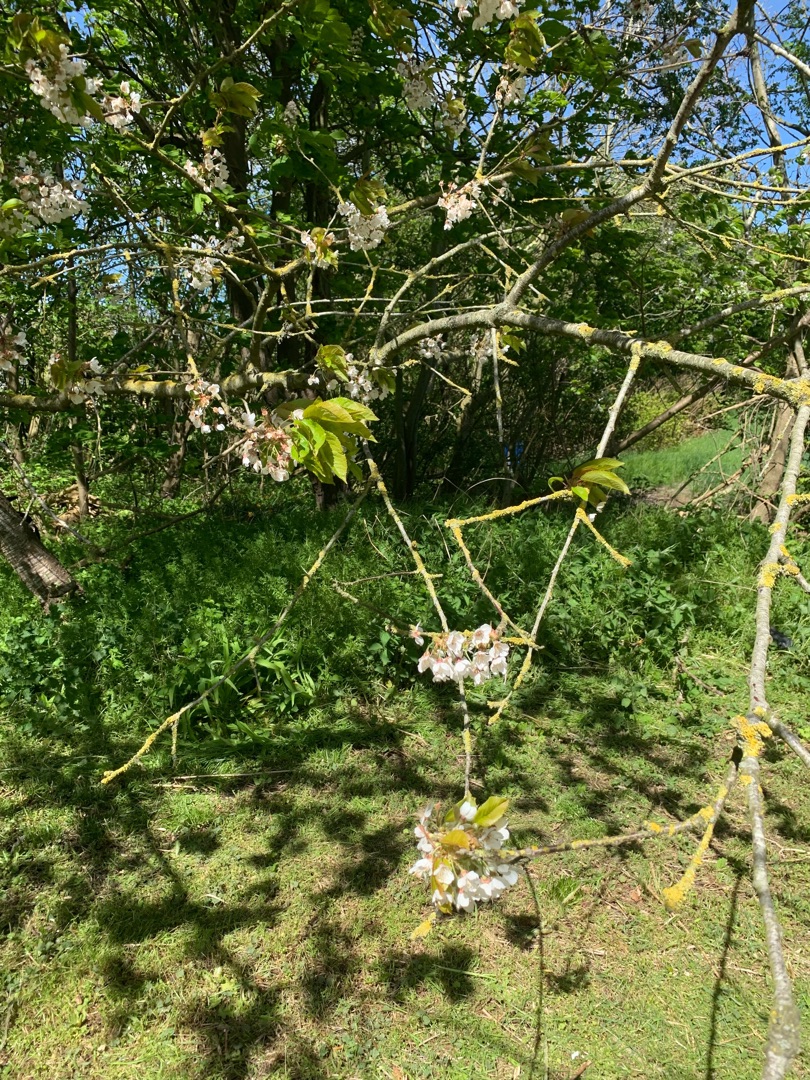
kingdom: Plantae
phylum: Tracheophyta
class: Magnoliopsida
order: Rosales
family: Rosaceae
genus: Prunus
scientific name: Prunus avium
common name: Fugle-kirsebær
